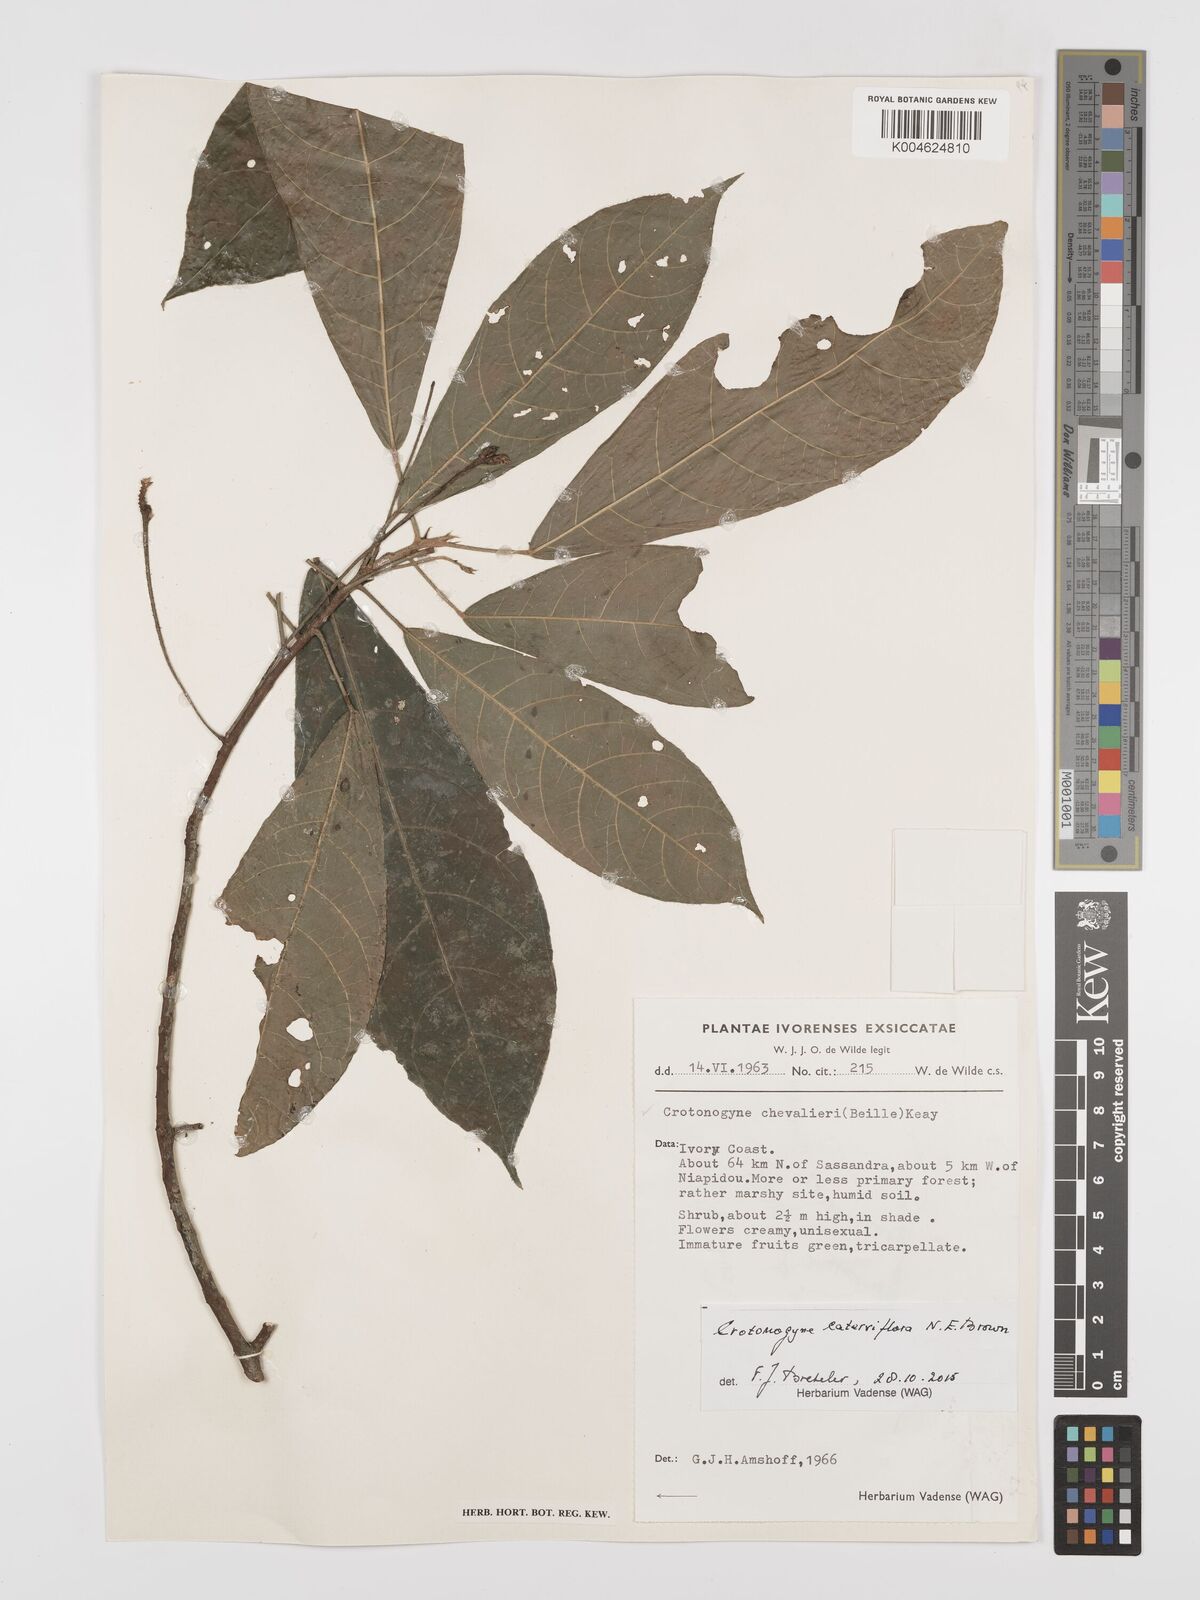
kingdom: Plantae
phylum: Tracheophyta
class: Magnoliopsida
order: Malpighiales
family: Euphorbiaceae
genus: Crotonogyne
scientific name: Crotonogyne caterviflora
